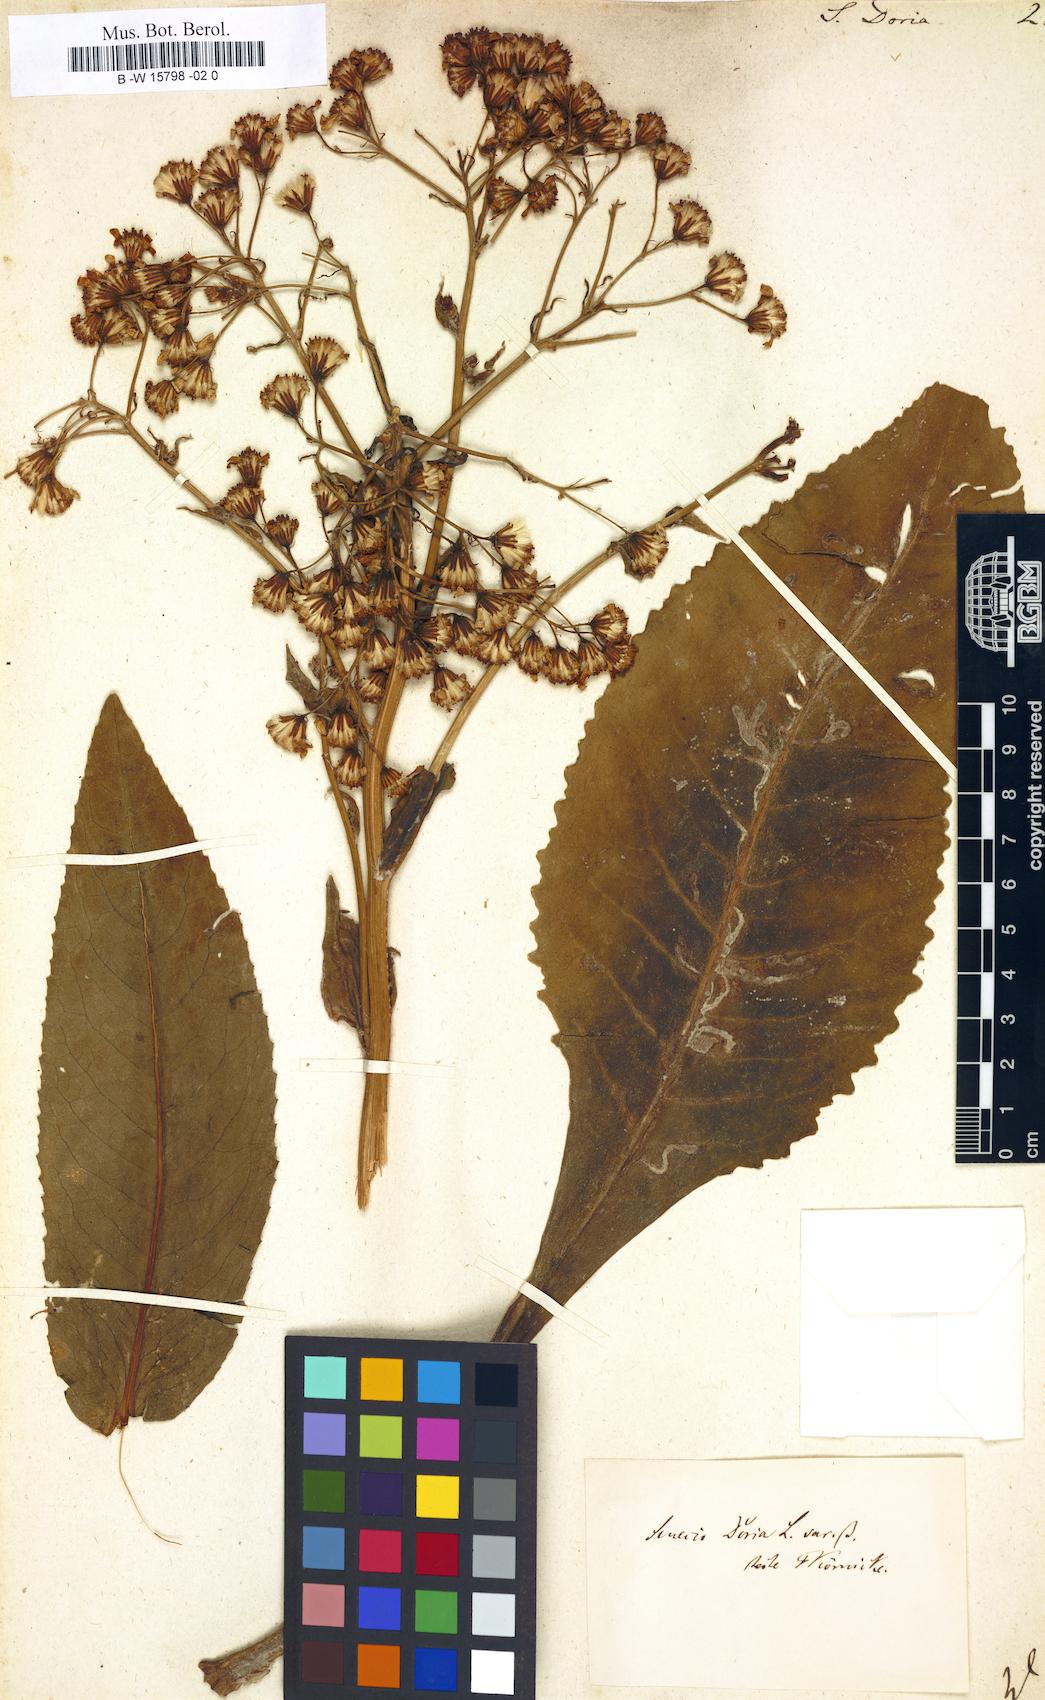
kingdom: Plantae
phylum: Tracheophyta
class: Magnoliopsida
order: Asterales
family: Asteraceae
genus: Senecio
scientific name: Senecio doria
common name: Golden ragwort
